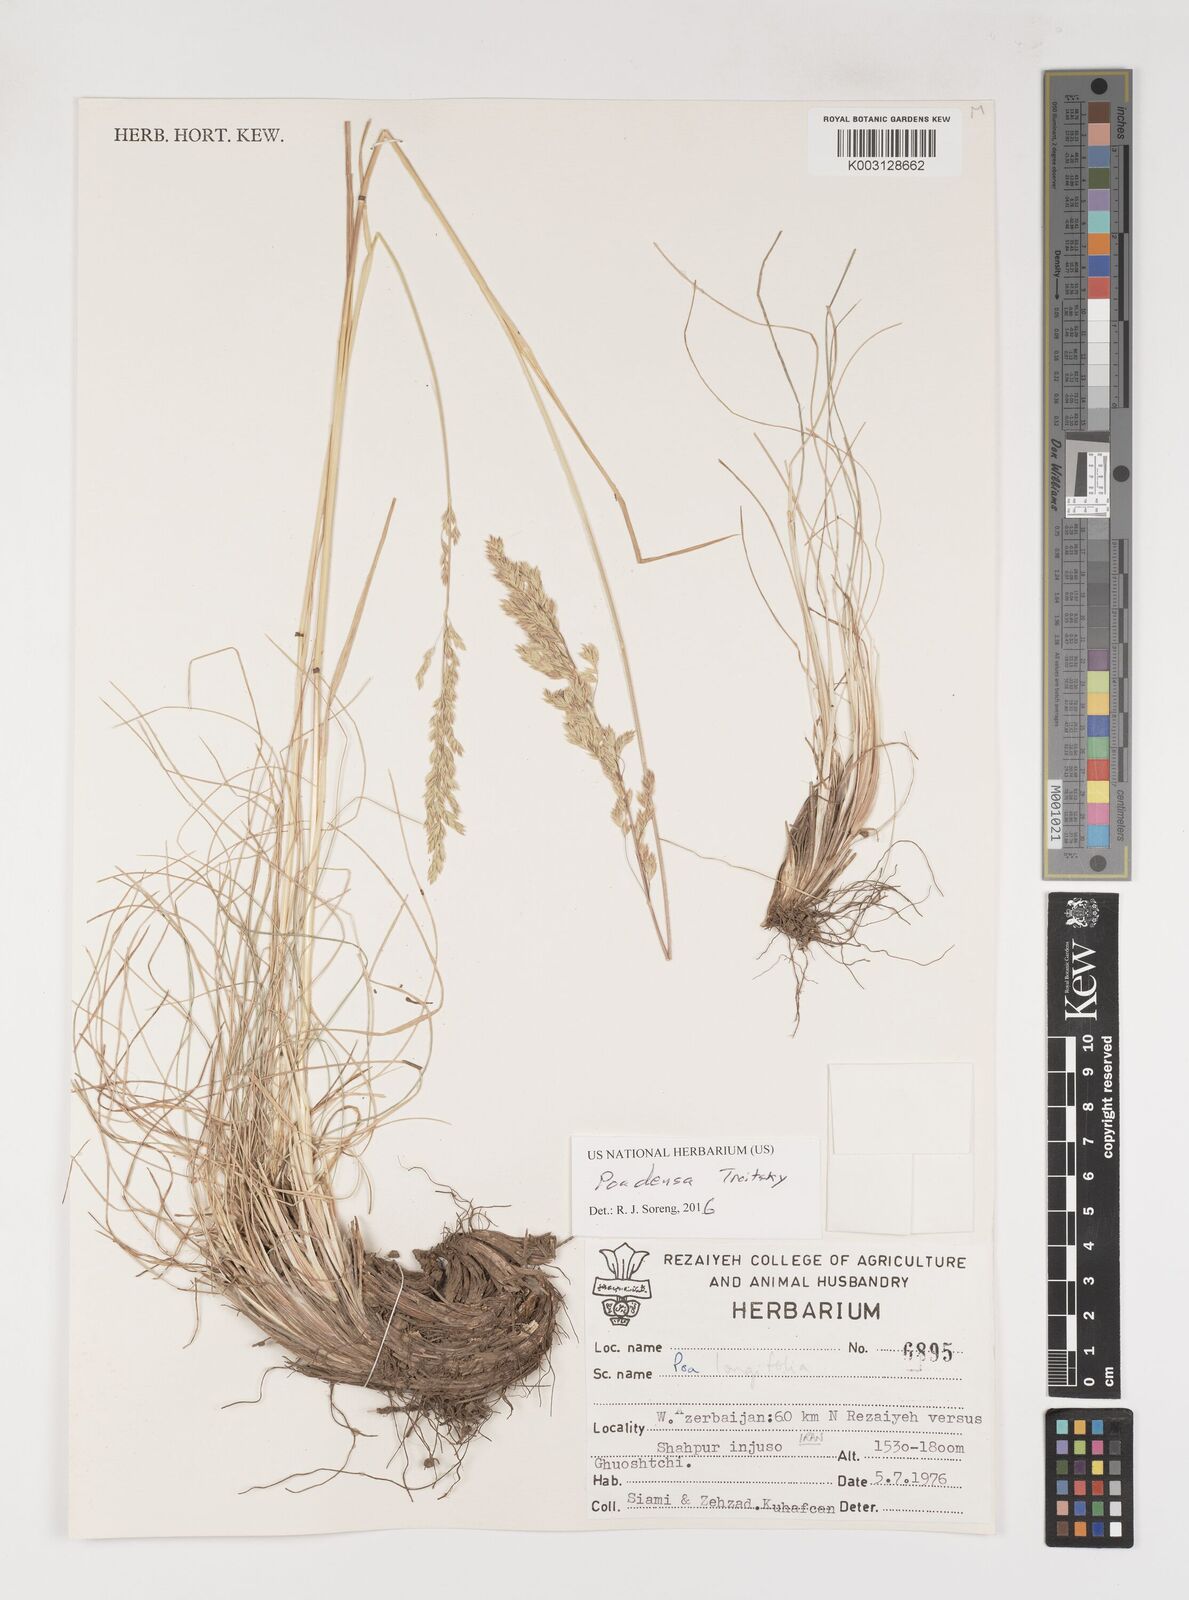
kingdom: Plantae
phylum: Tracheophyta
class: Liliopsida
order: Poales
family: Poaceae
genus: Poa
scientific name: Poa densa
